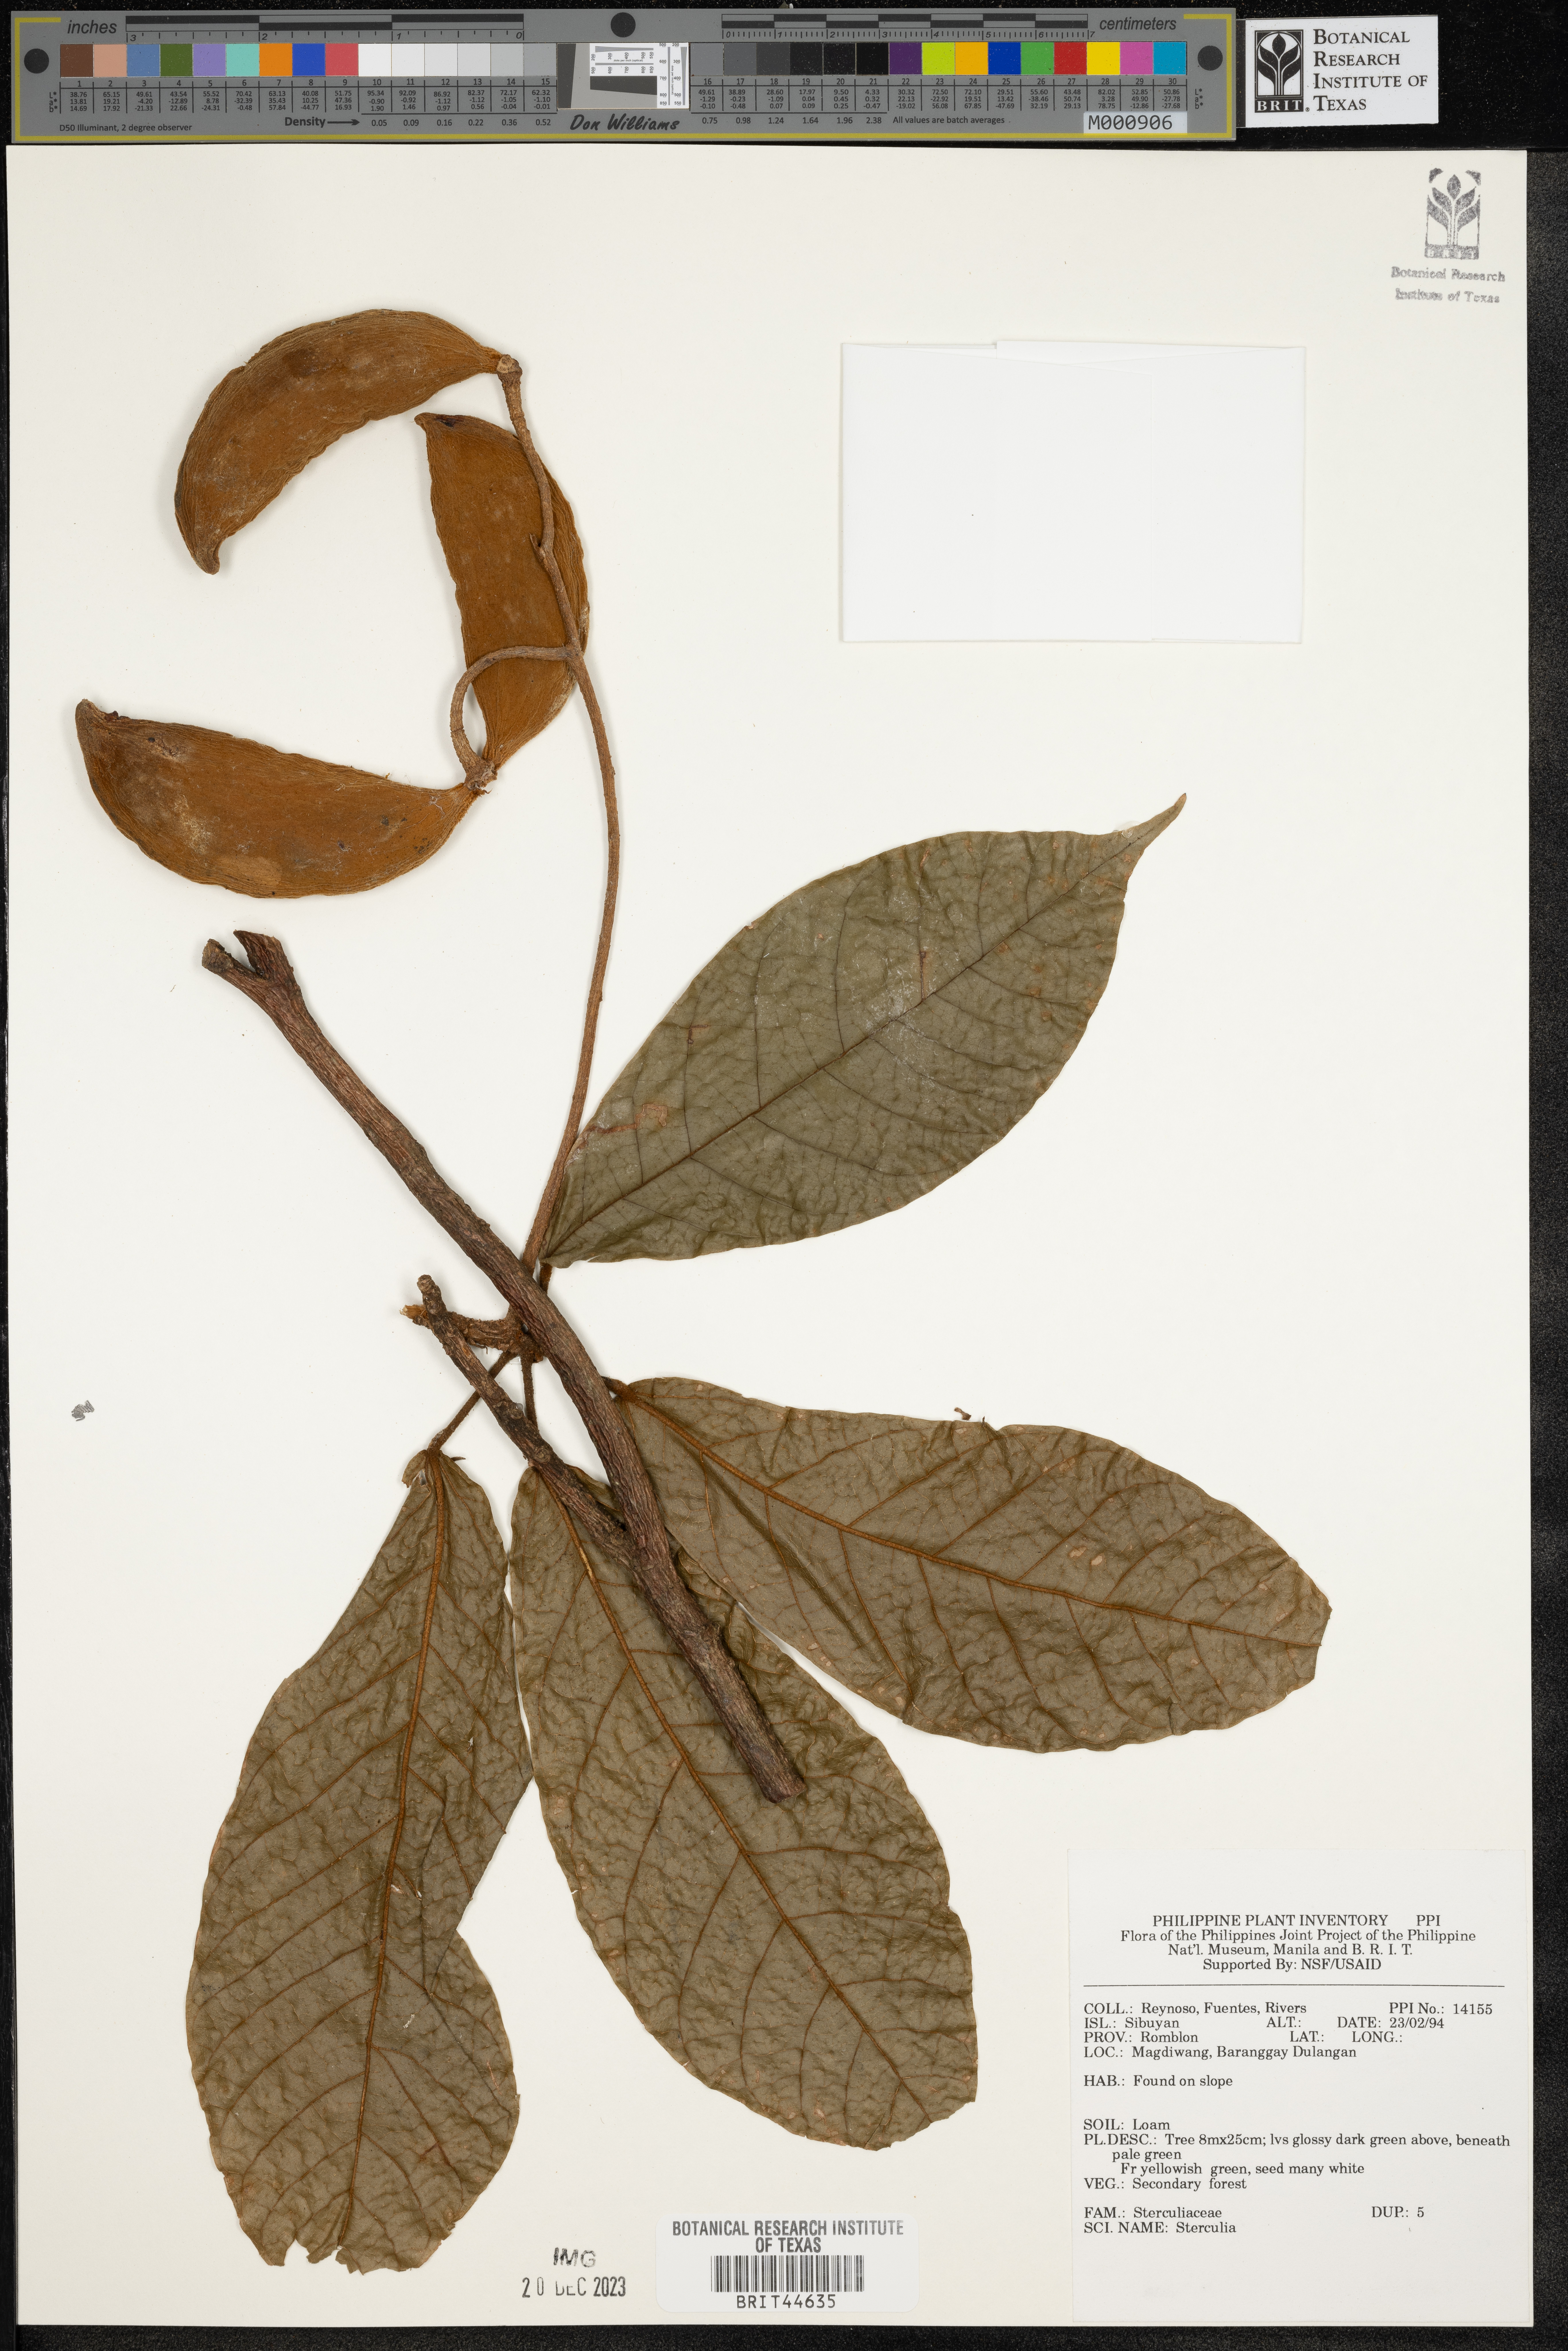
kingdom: Plantae
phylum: Tracheophyta
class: Magnoliopsida
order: Malvales
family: Malvaceae
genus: Sterculia
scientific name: Sterculia
